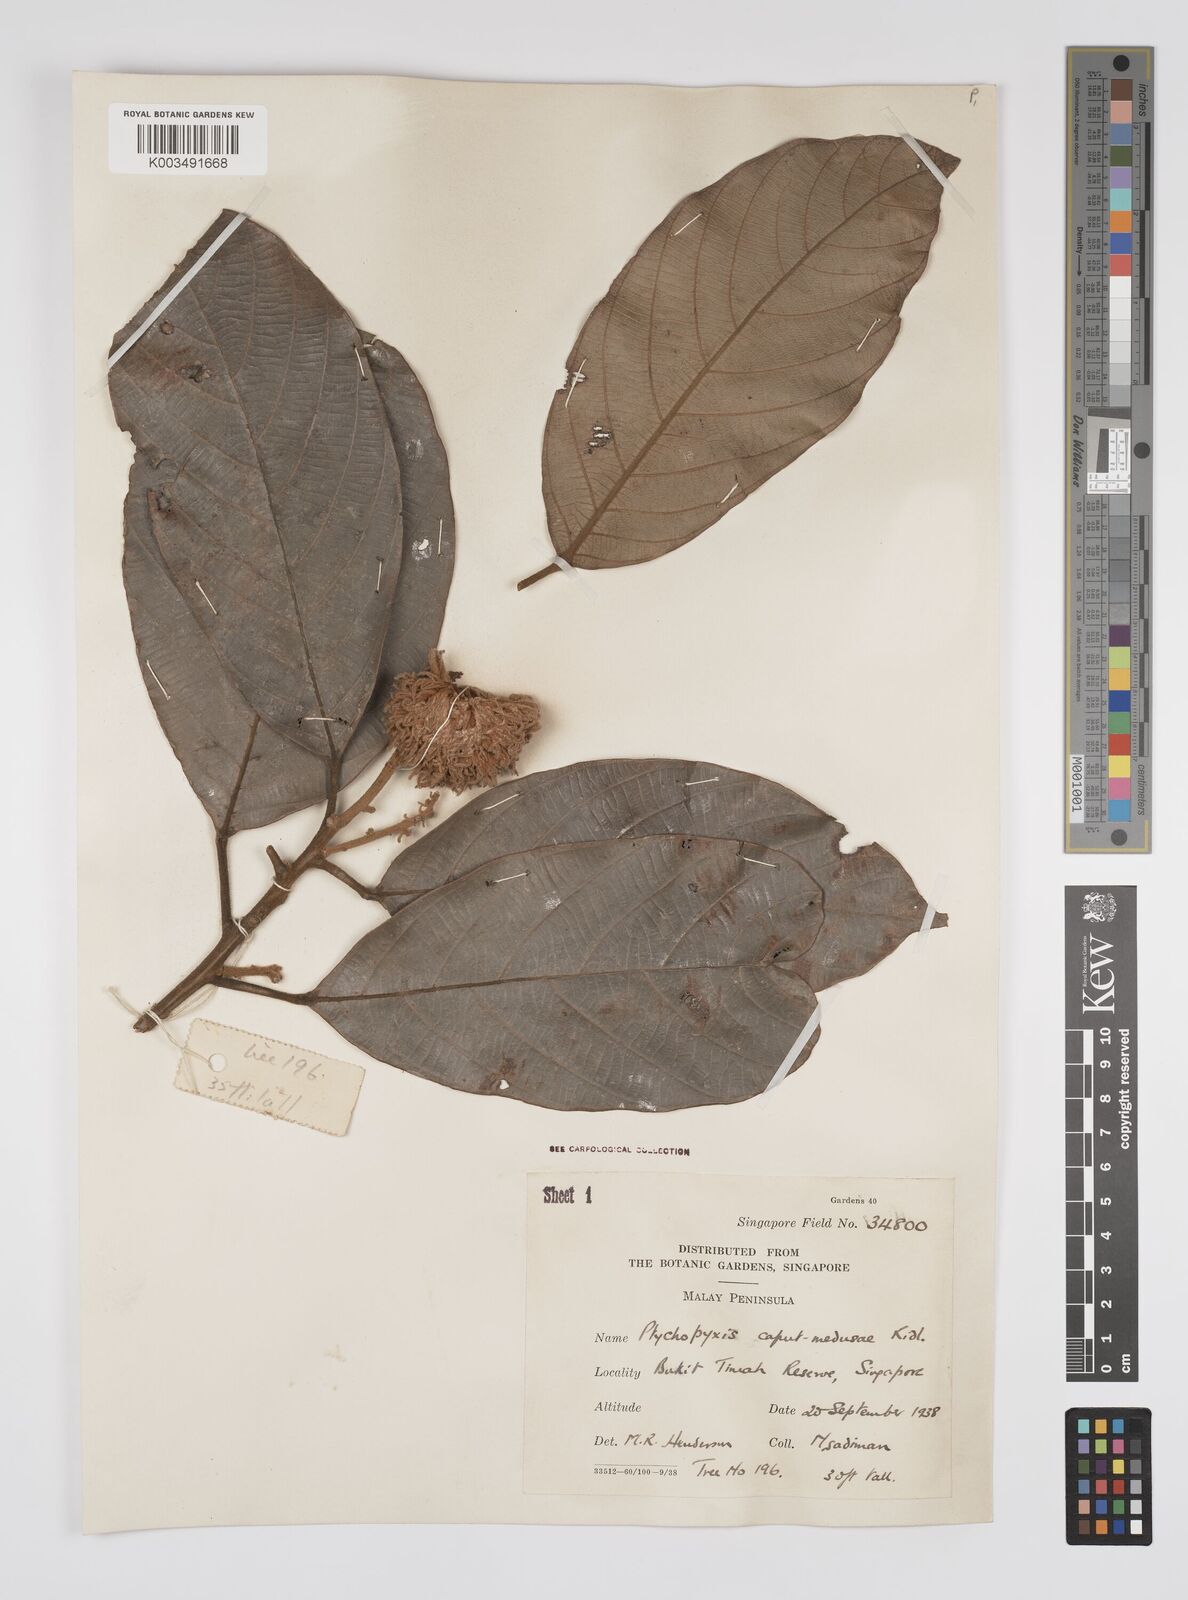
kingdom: Plantae
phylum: Tracheophyta
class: Magnoliopsida
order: Malpighiales
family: Euphorbiaceae
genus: Ptychopyxis
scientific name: Ptychopyxis caput-medusae
